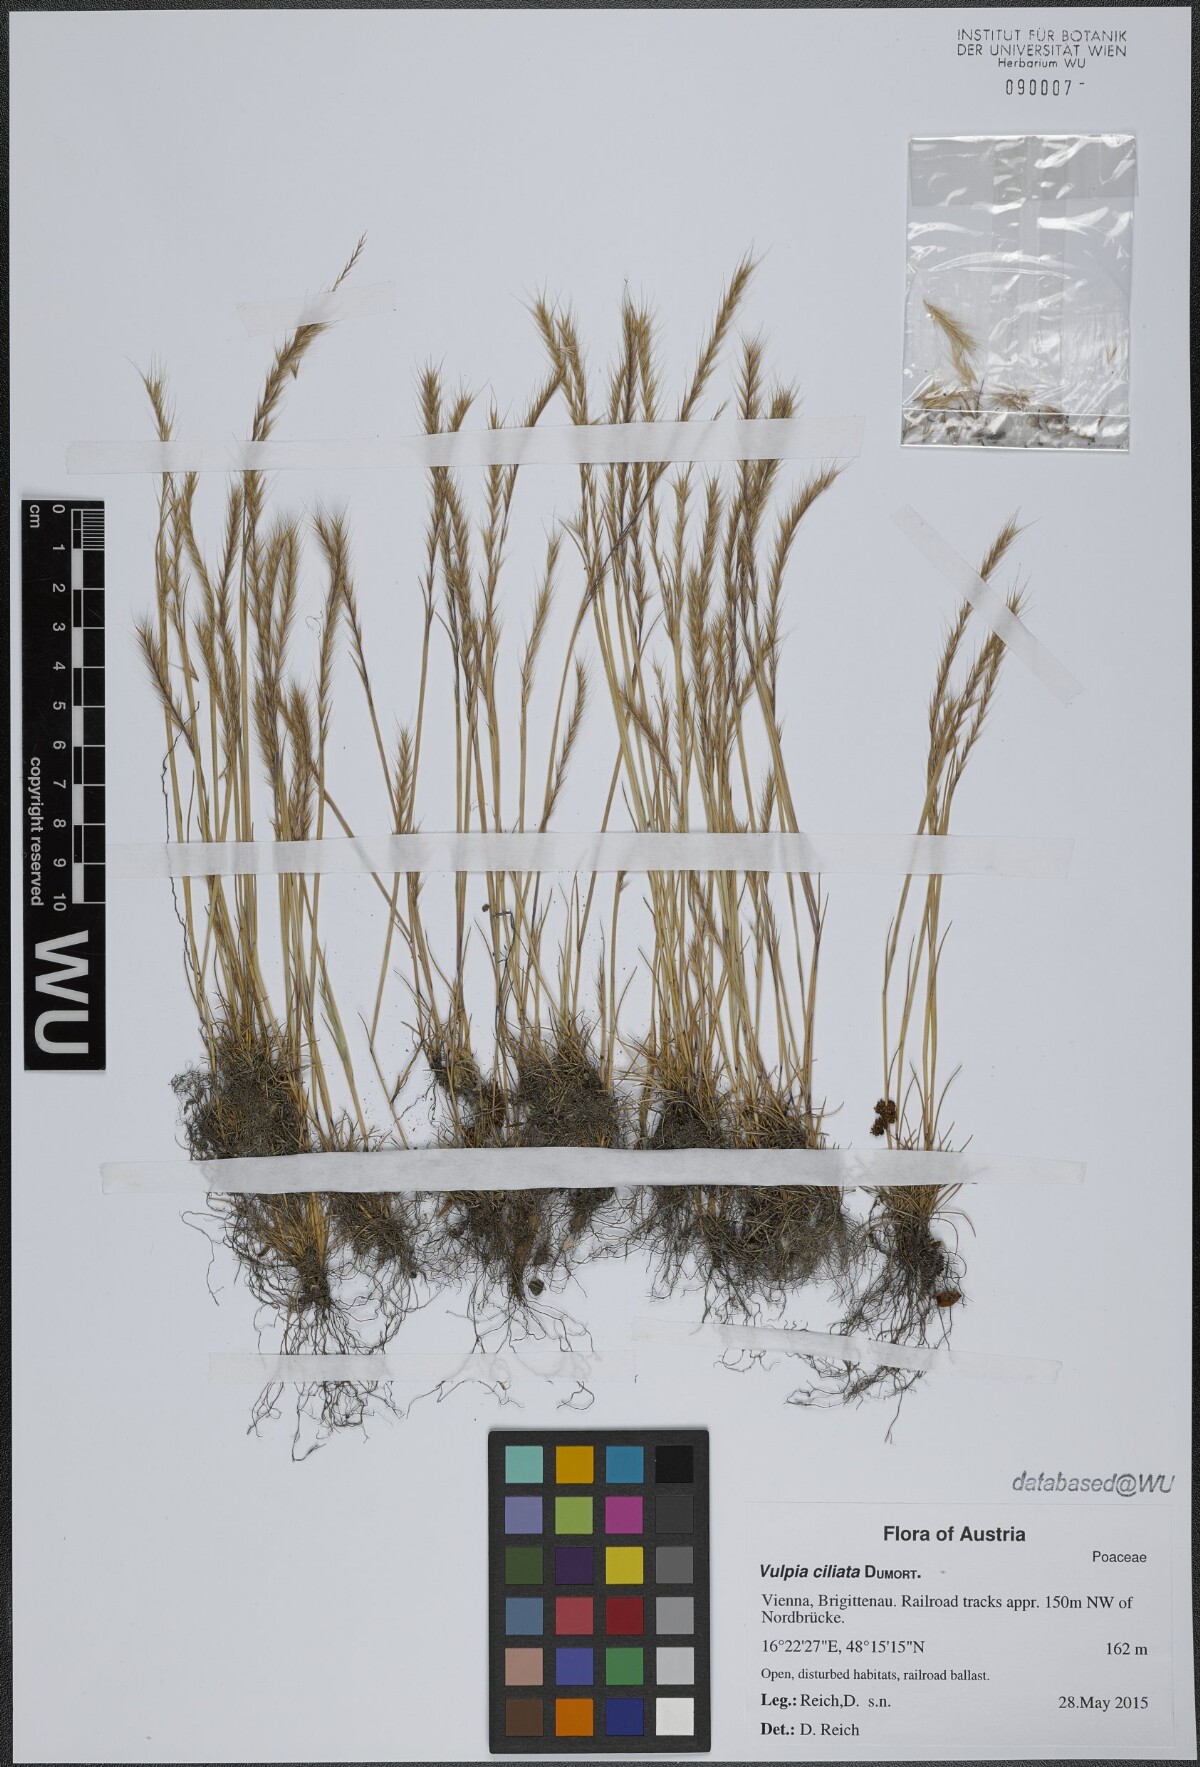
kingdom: Plantae
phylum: Tracheophyta
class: Liliopsida
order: Poales
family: Poaceae
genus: Festuca
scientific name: Festuca ambigua
